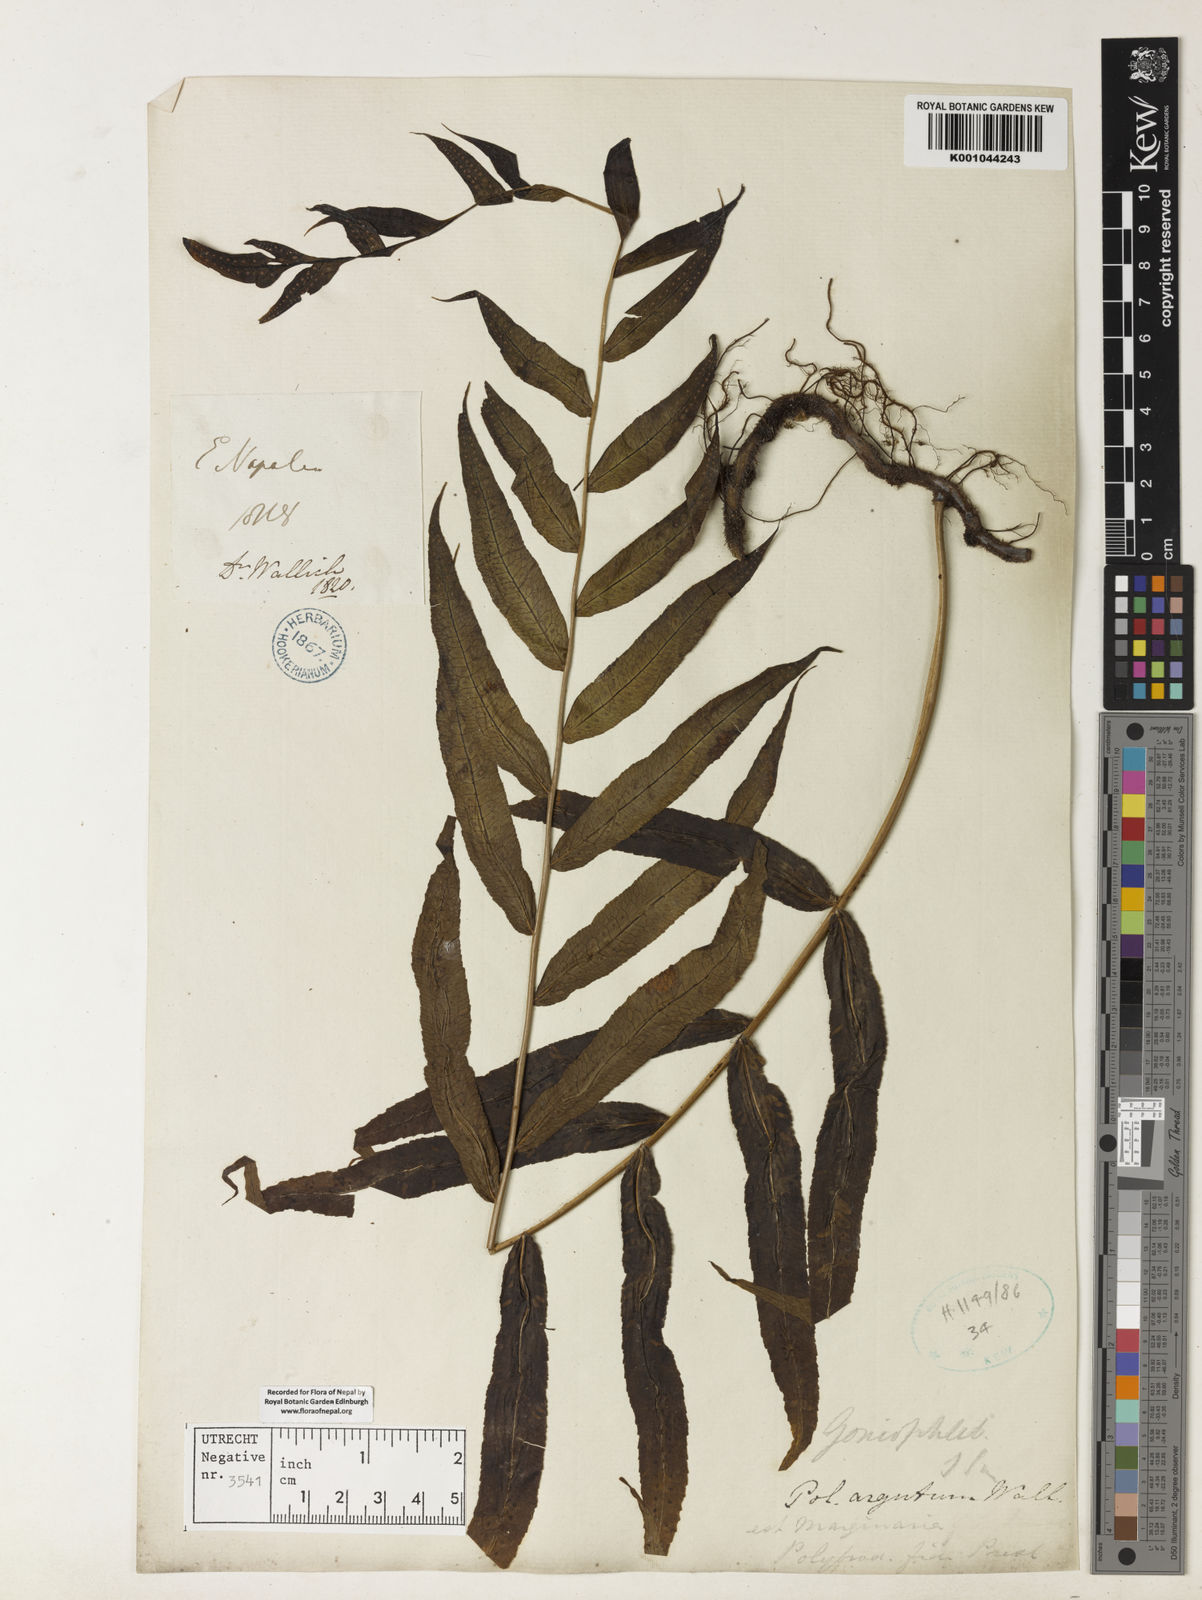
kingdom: Plantae
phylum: Tracheophyta
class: Polypodiopsida
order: Polypodiales
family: Polypodiaceae
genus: Goniophlebium
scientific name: Goniophlebium argutum
